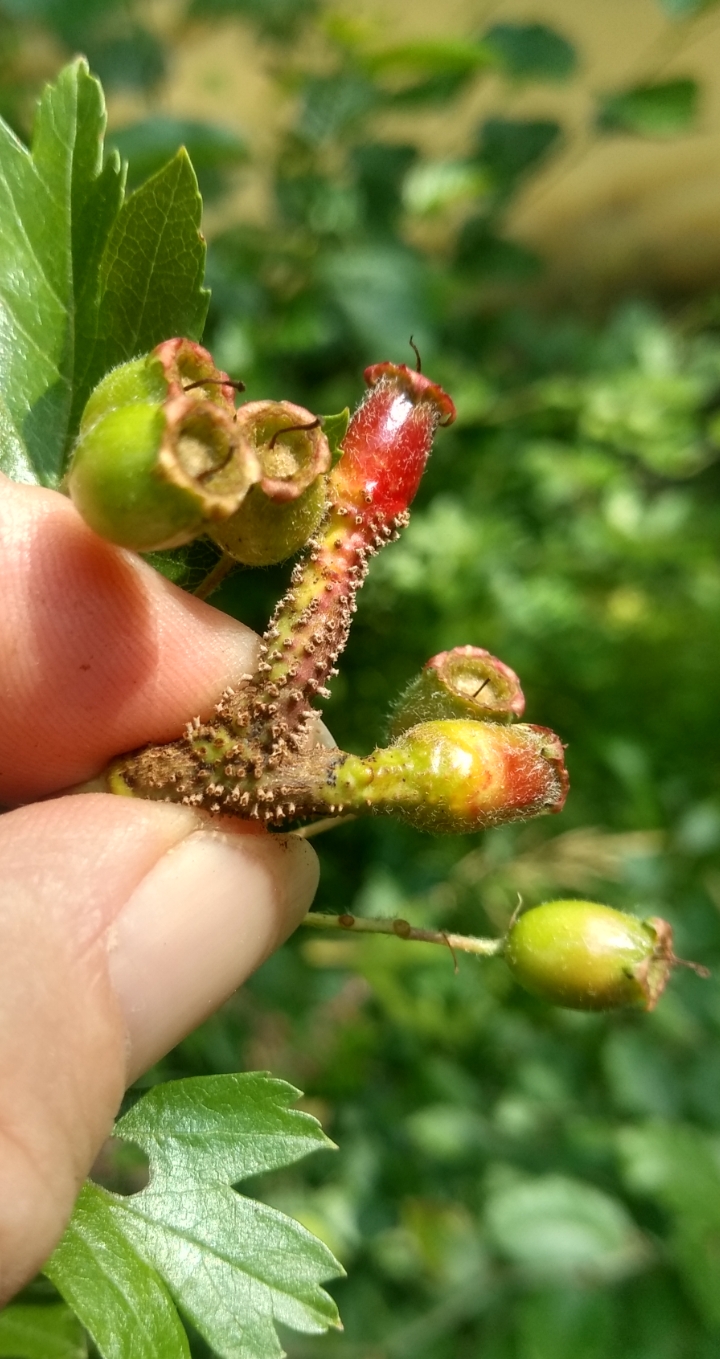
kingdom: Fungi
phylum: Basidiomycota
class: Pucciniomycetes
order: Pucciniales
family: Gymnosporangiaceae
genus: Gymnosporangium
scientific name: Gymnosporangium
